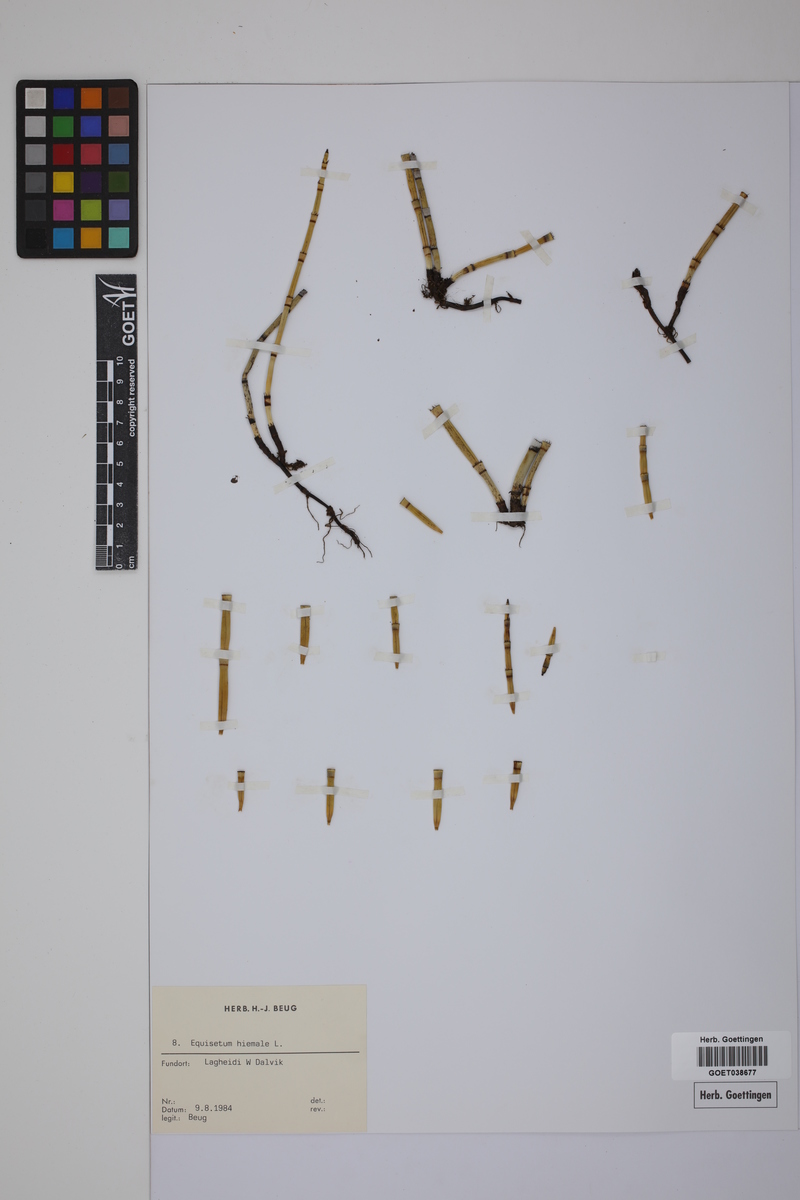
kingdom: Plantae
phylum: Tracheophyta
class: Polypodiopsida
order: Equisetales
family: Equisetaceae
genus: Equisetum
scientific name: Equisetum hyemale
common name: Rough horsetail
